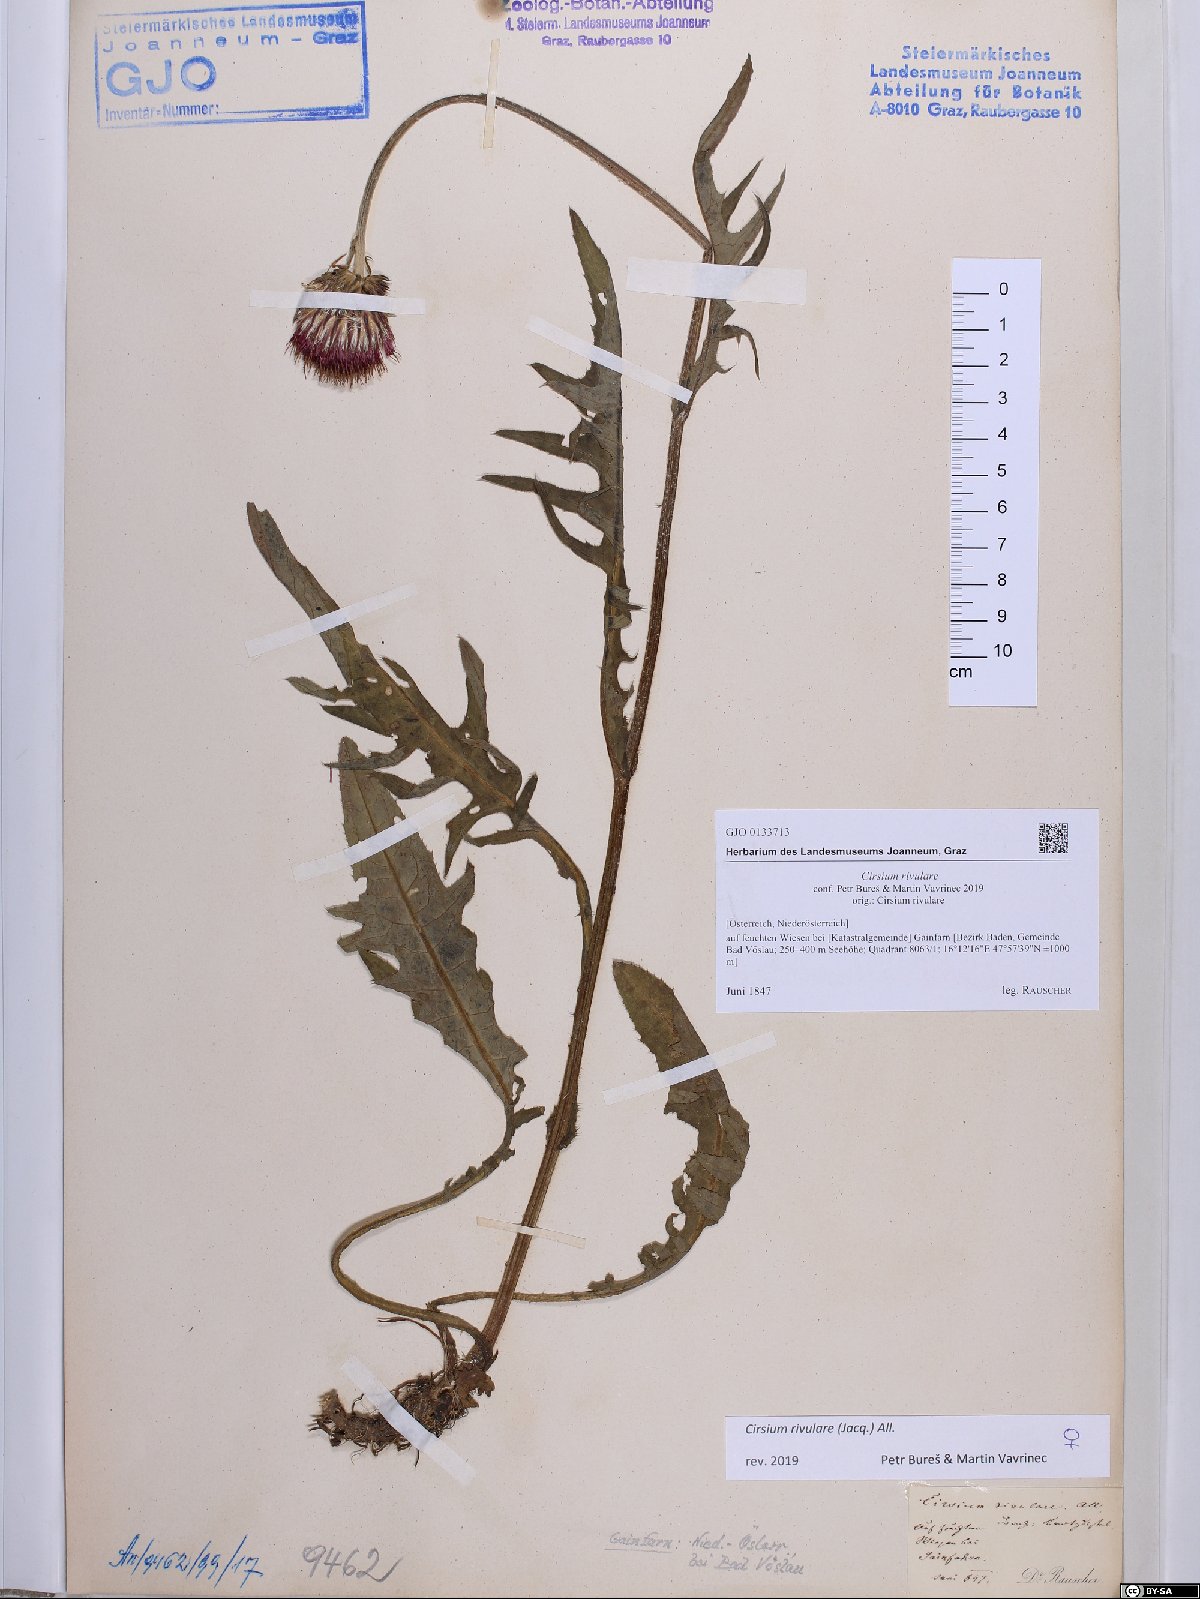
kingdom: Plantae
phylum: Tracheophyta
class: Magnoliopsida
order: Asterales
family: Asteraceae
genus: Cirsium
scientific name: Cirsium rivulare
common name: Brook thistle
